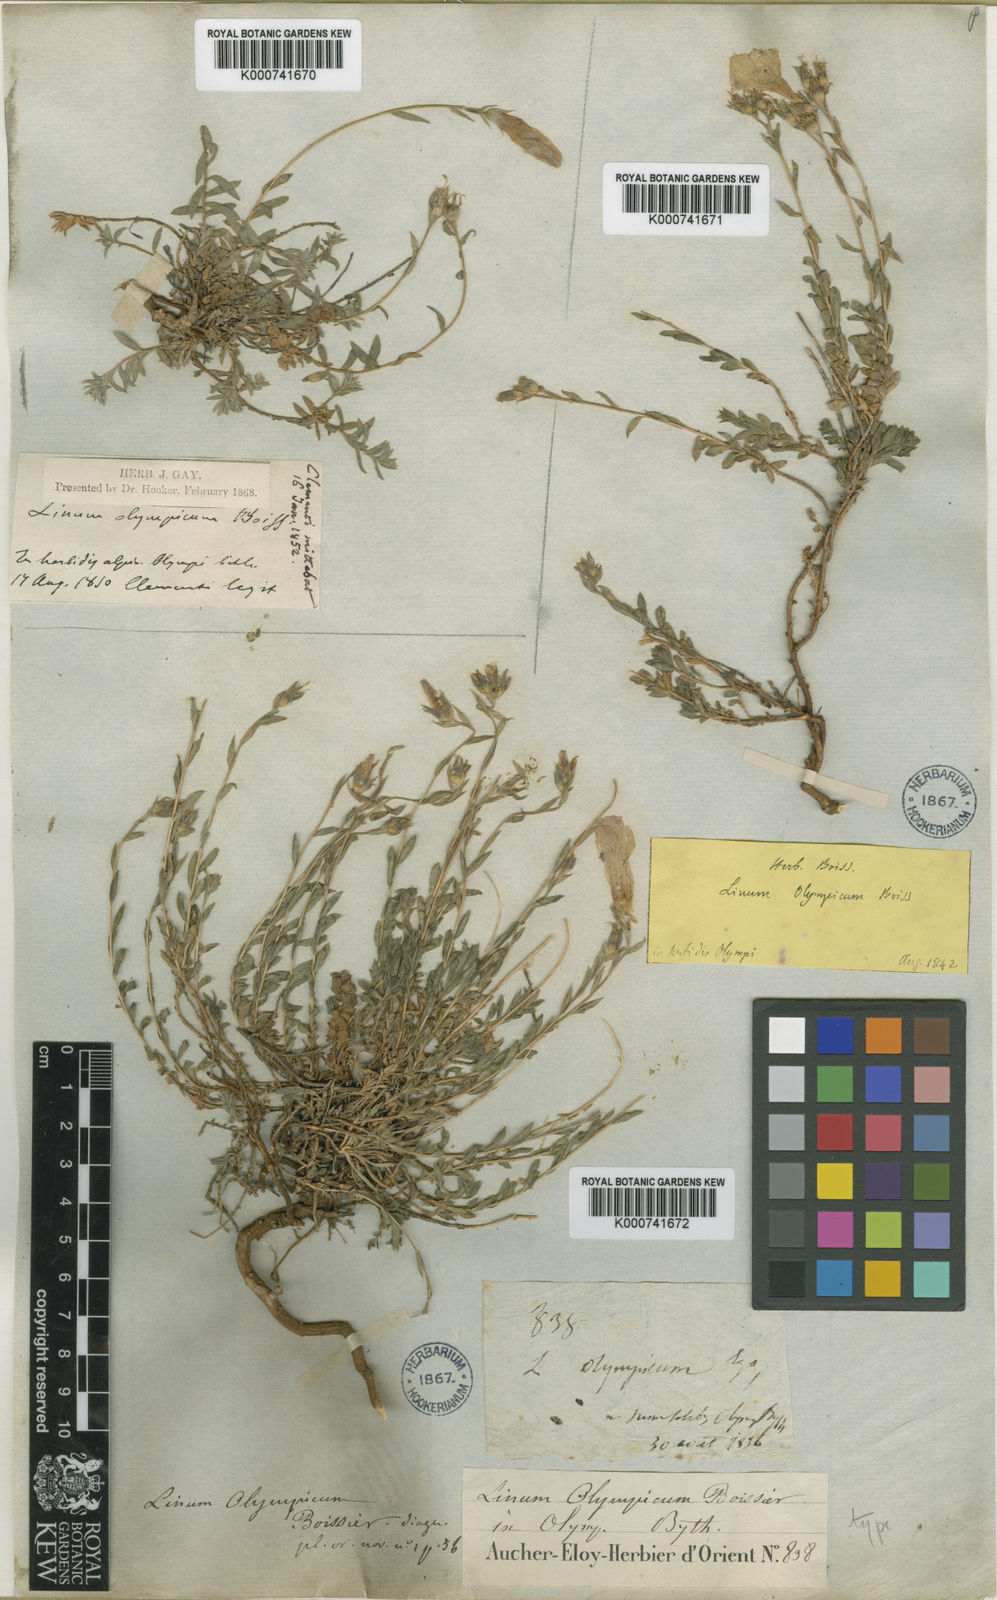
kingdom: Plantae
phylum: Tracheophyta
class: Magnoliopsida
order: Malpighiales
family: Linaceae
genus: Linum
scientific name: Linum olympicum
